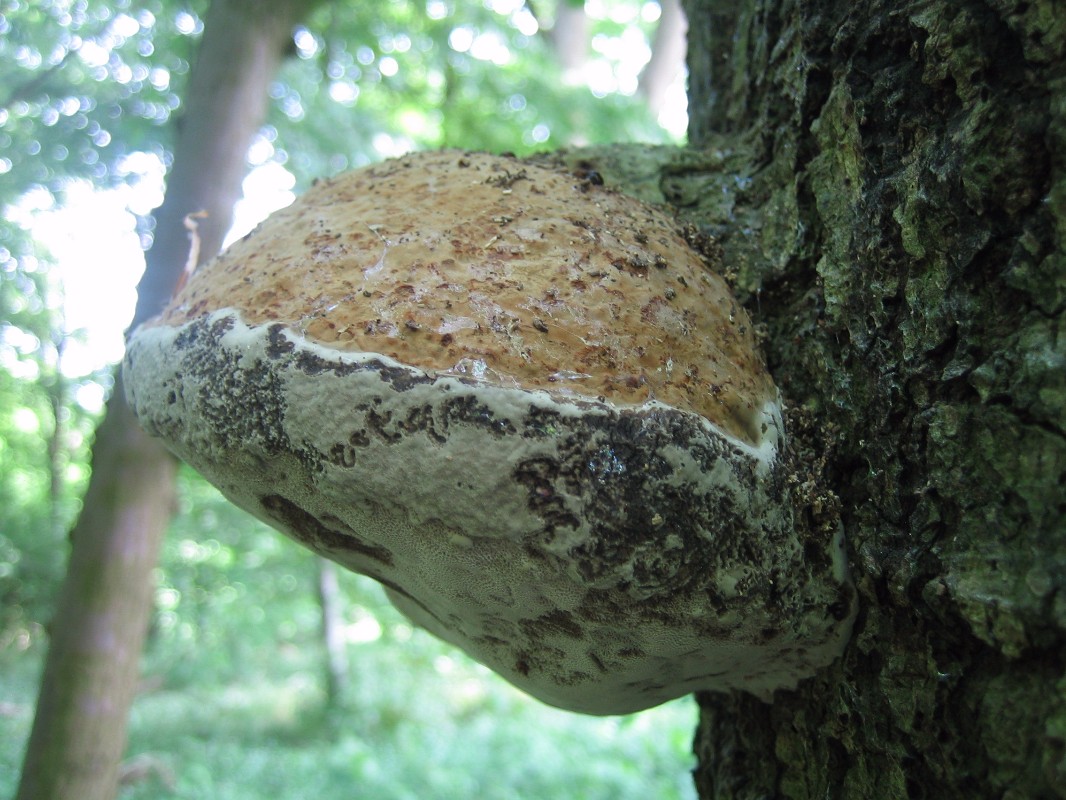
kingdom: Fungi
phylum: Basidiomycota
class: Agaricomycetes
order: Polyporales
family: Polyporaceae
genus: Fomes
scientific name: Fomes fomentarius
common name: tøndersvamp
